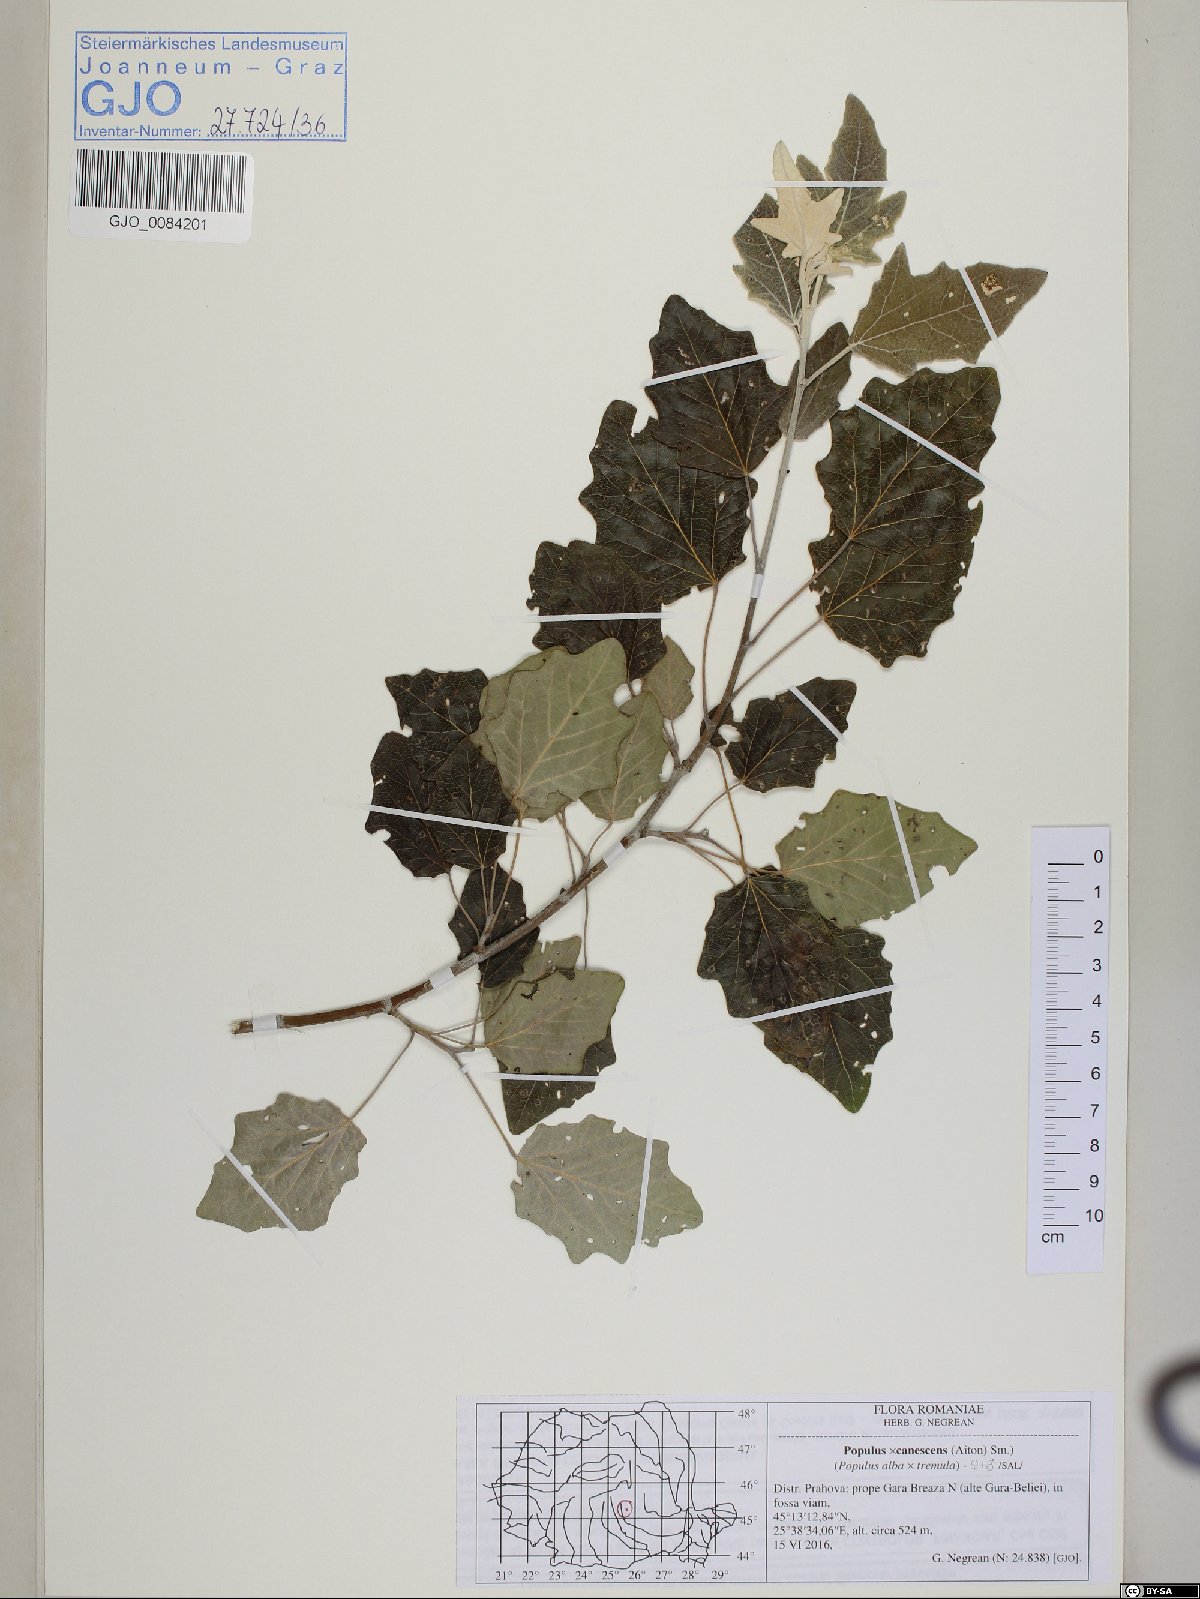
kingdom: Plantae
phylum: Tracheophyta
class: Magnoliopsida
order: Malpighiales
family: Salicaceae
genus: Populus
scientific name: Populus canescens
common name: Gray poplar
